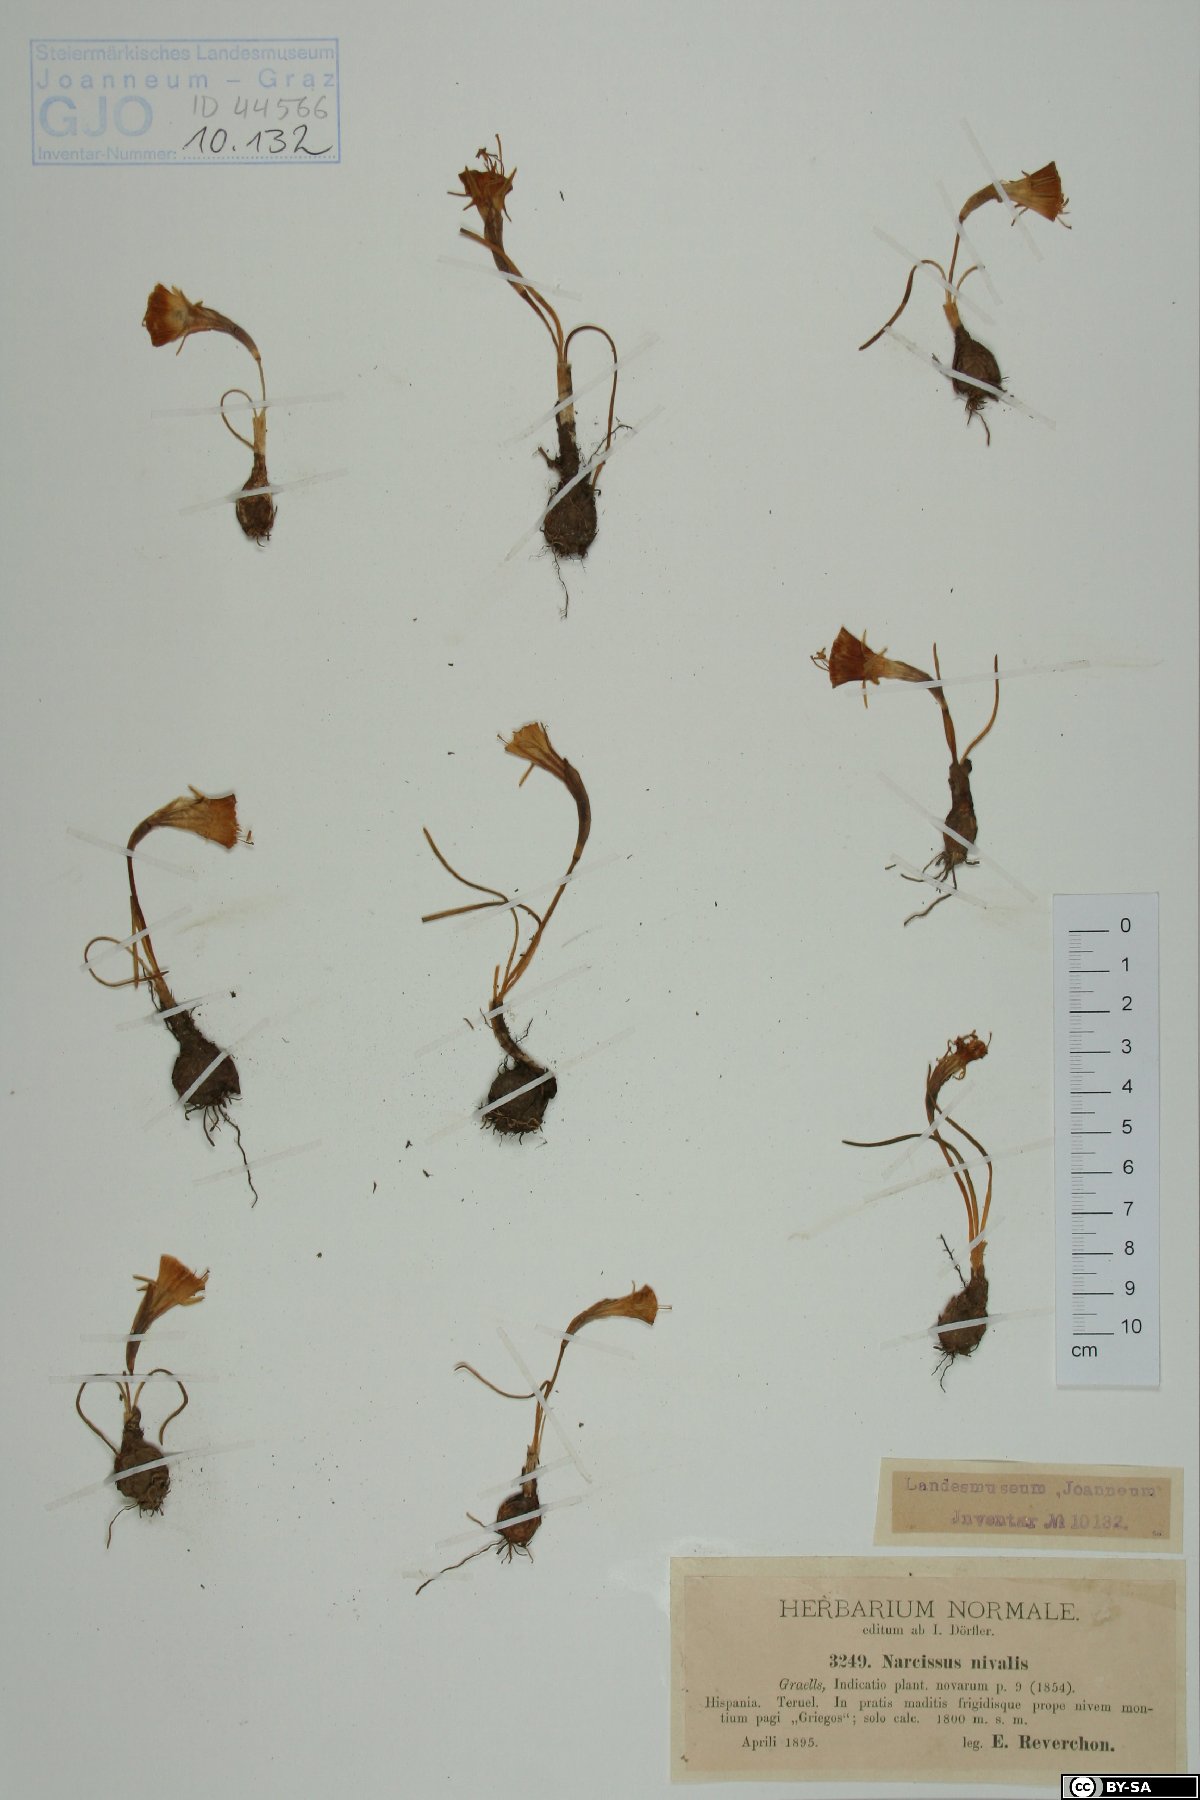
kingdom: Plantae
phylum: Tracheophyta
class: Liliopsida
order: Asparagales
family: Amaryllidaceae
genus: Narcissus
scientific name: Narcissus bulbocodium
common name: Hoop-petticoat daffodil
